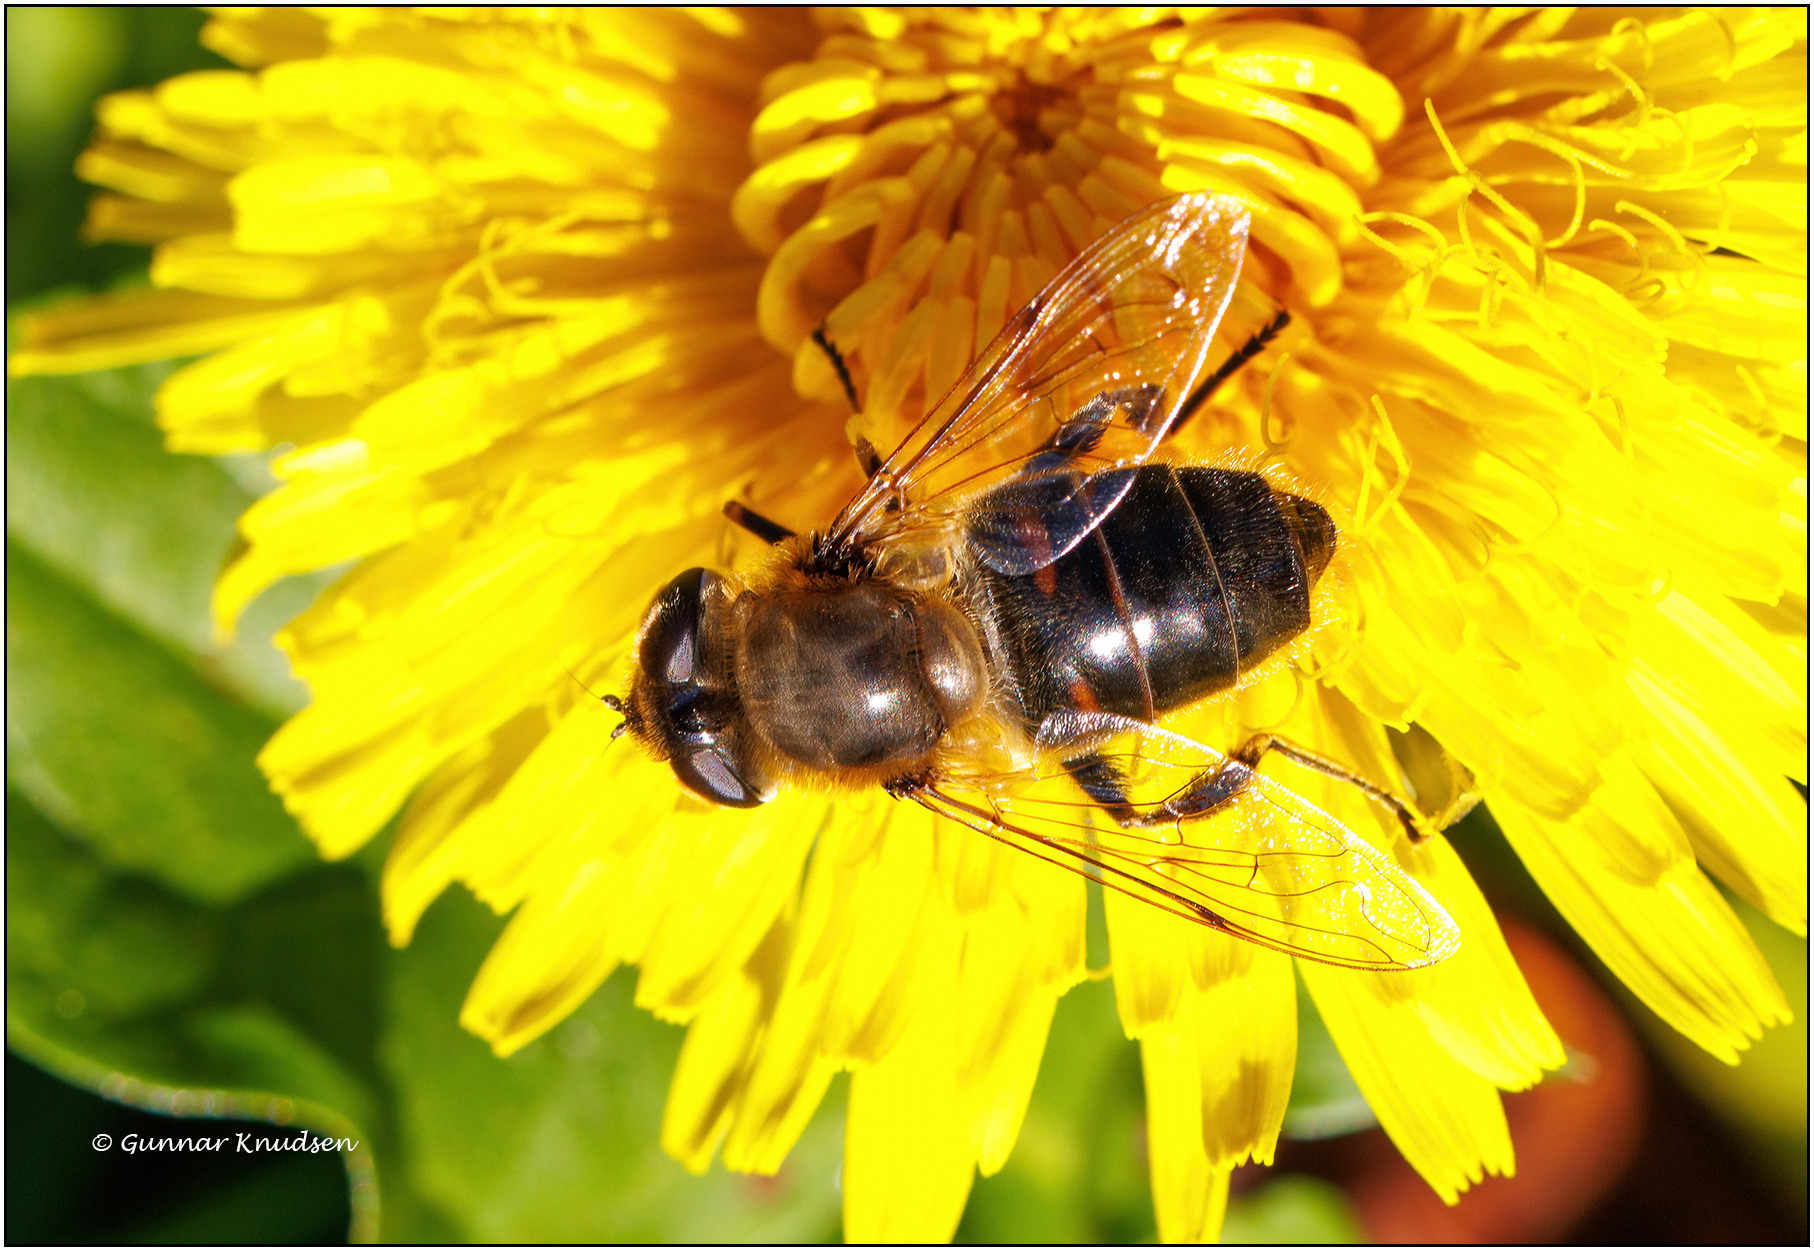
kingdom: Animalia
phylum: Arthropoda
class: Insecta
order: Diptera
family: Syrphidae
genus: Eristalis
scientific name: Eristalis tenax
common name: Droneflue
